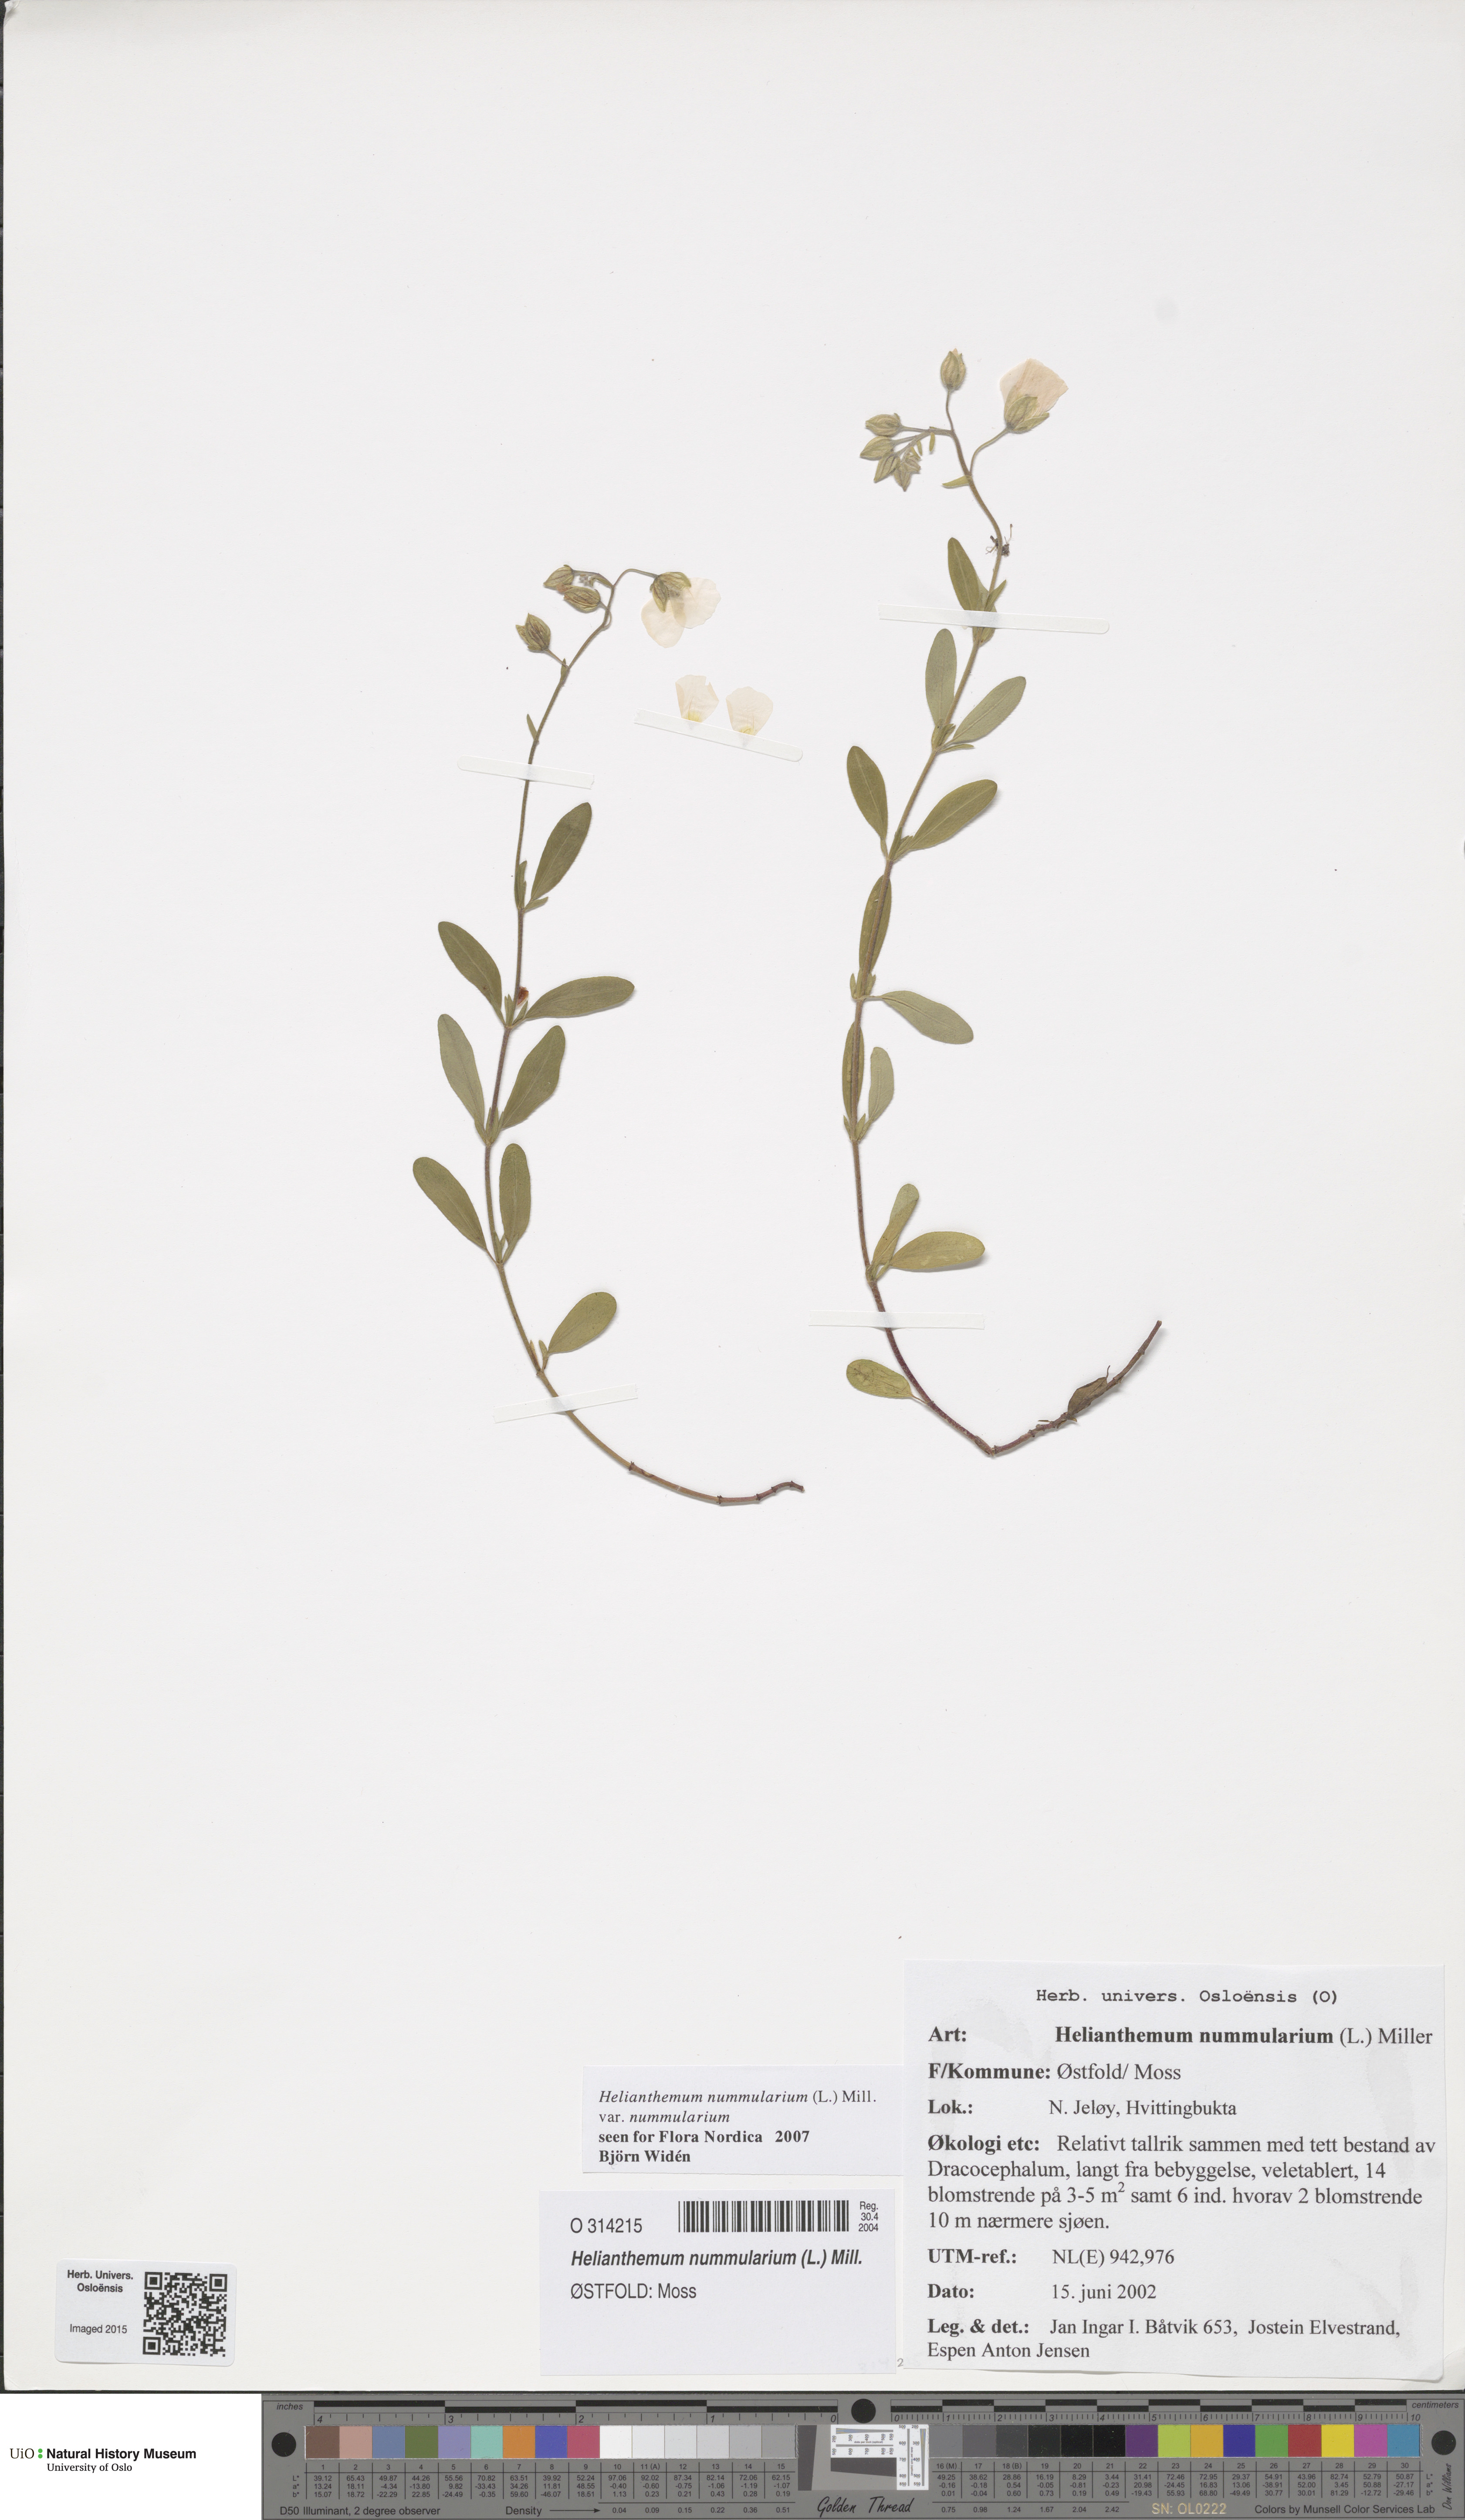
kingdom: Plantae
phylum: Tracheophyta
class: Magnoliopsida
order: Malvales
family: Cistaceae
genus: Helianthemum
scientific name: Helianthemum nummularium
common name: Common rock-rose
